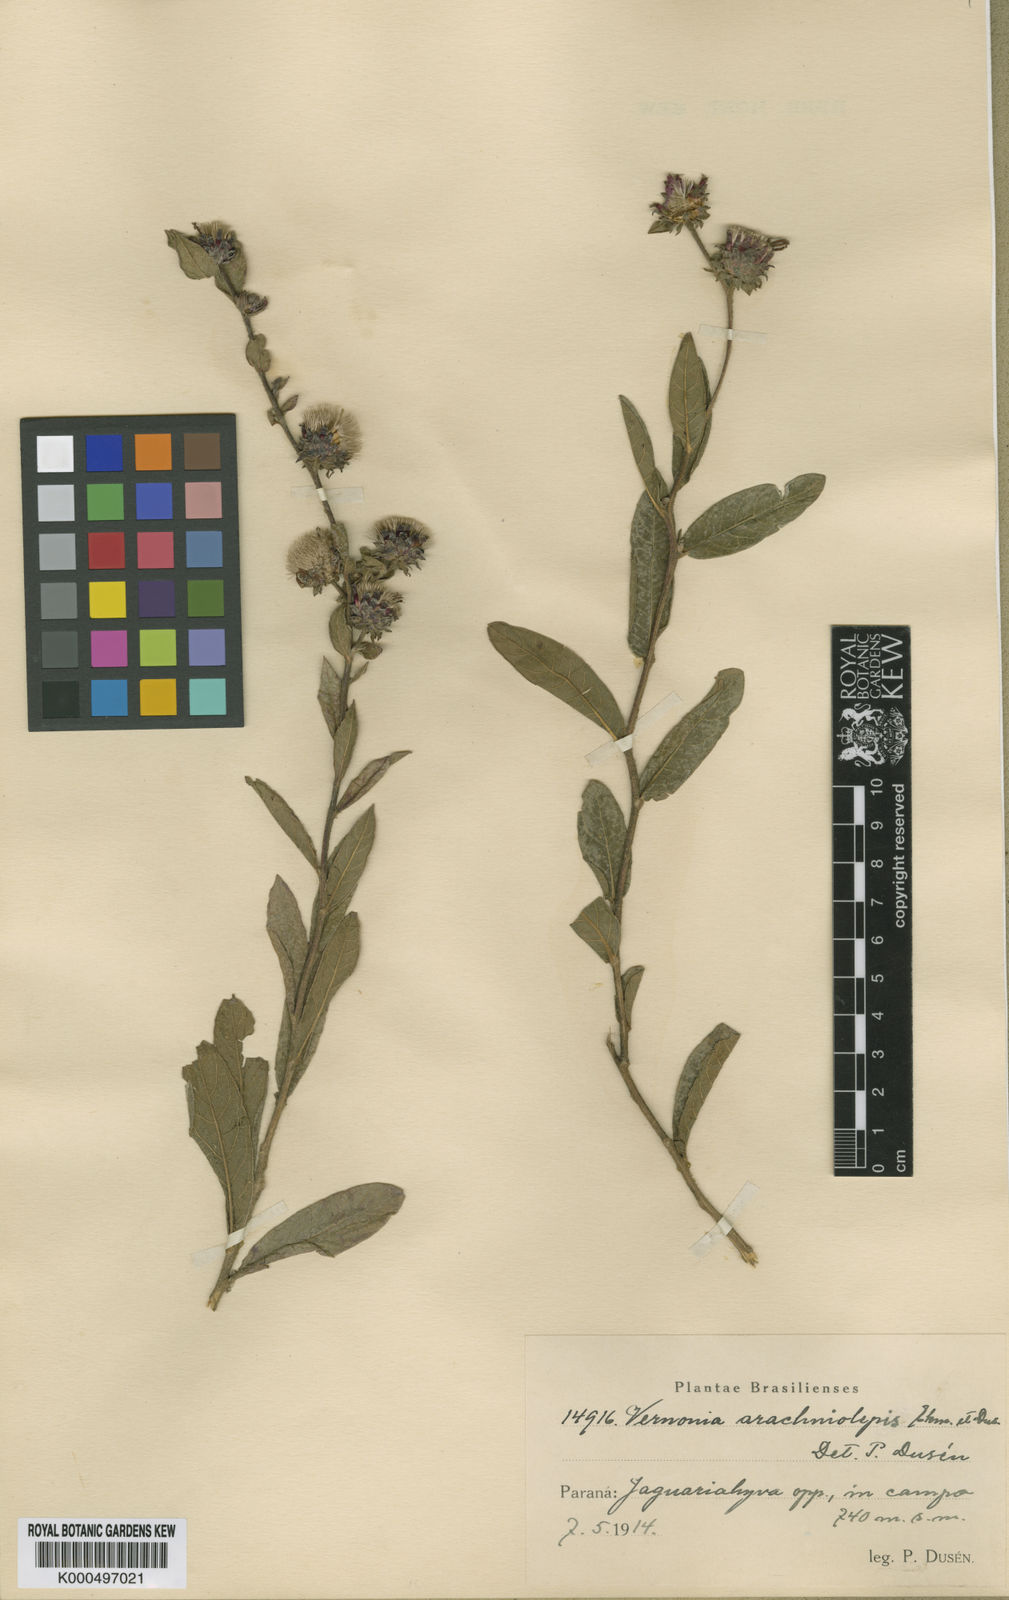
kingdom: Plantae
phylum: Tracheophyta
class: Magnoliopsida
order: Asterales
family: Asteraceae
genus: Vernonia
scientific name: Vernonia
